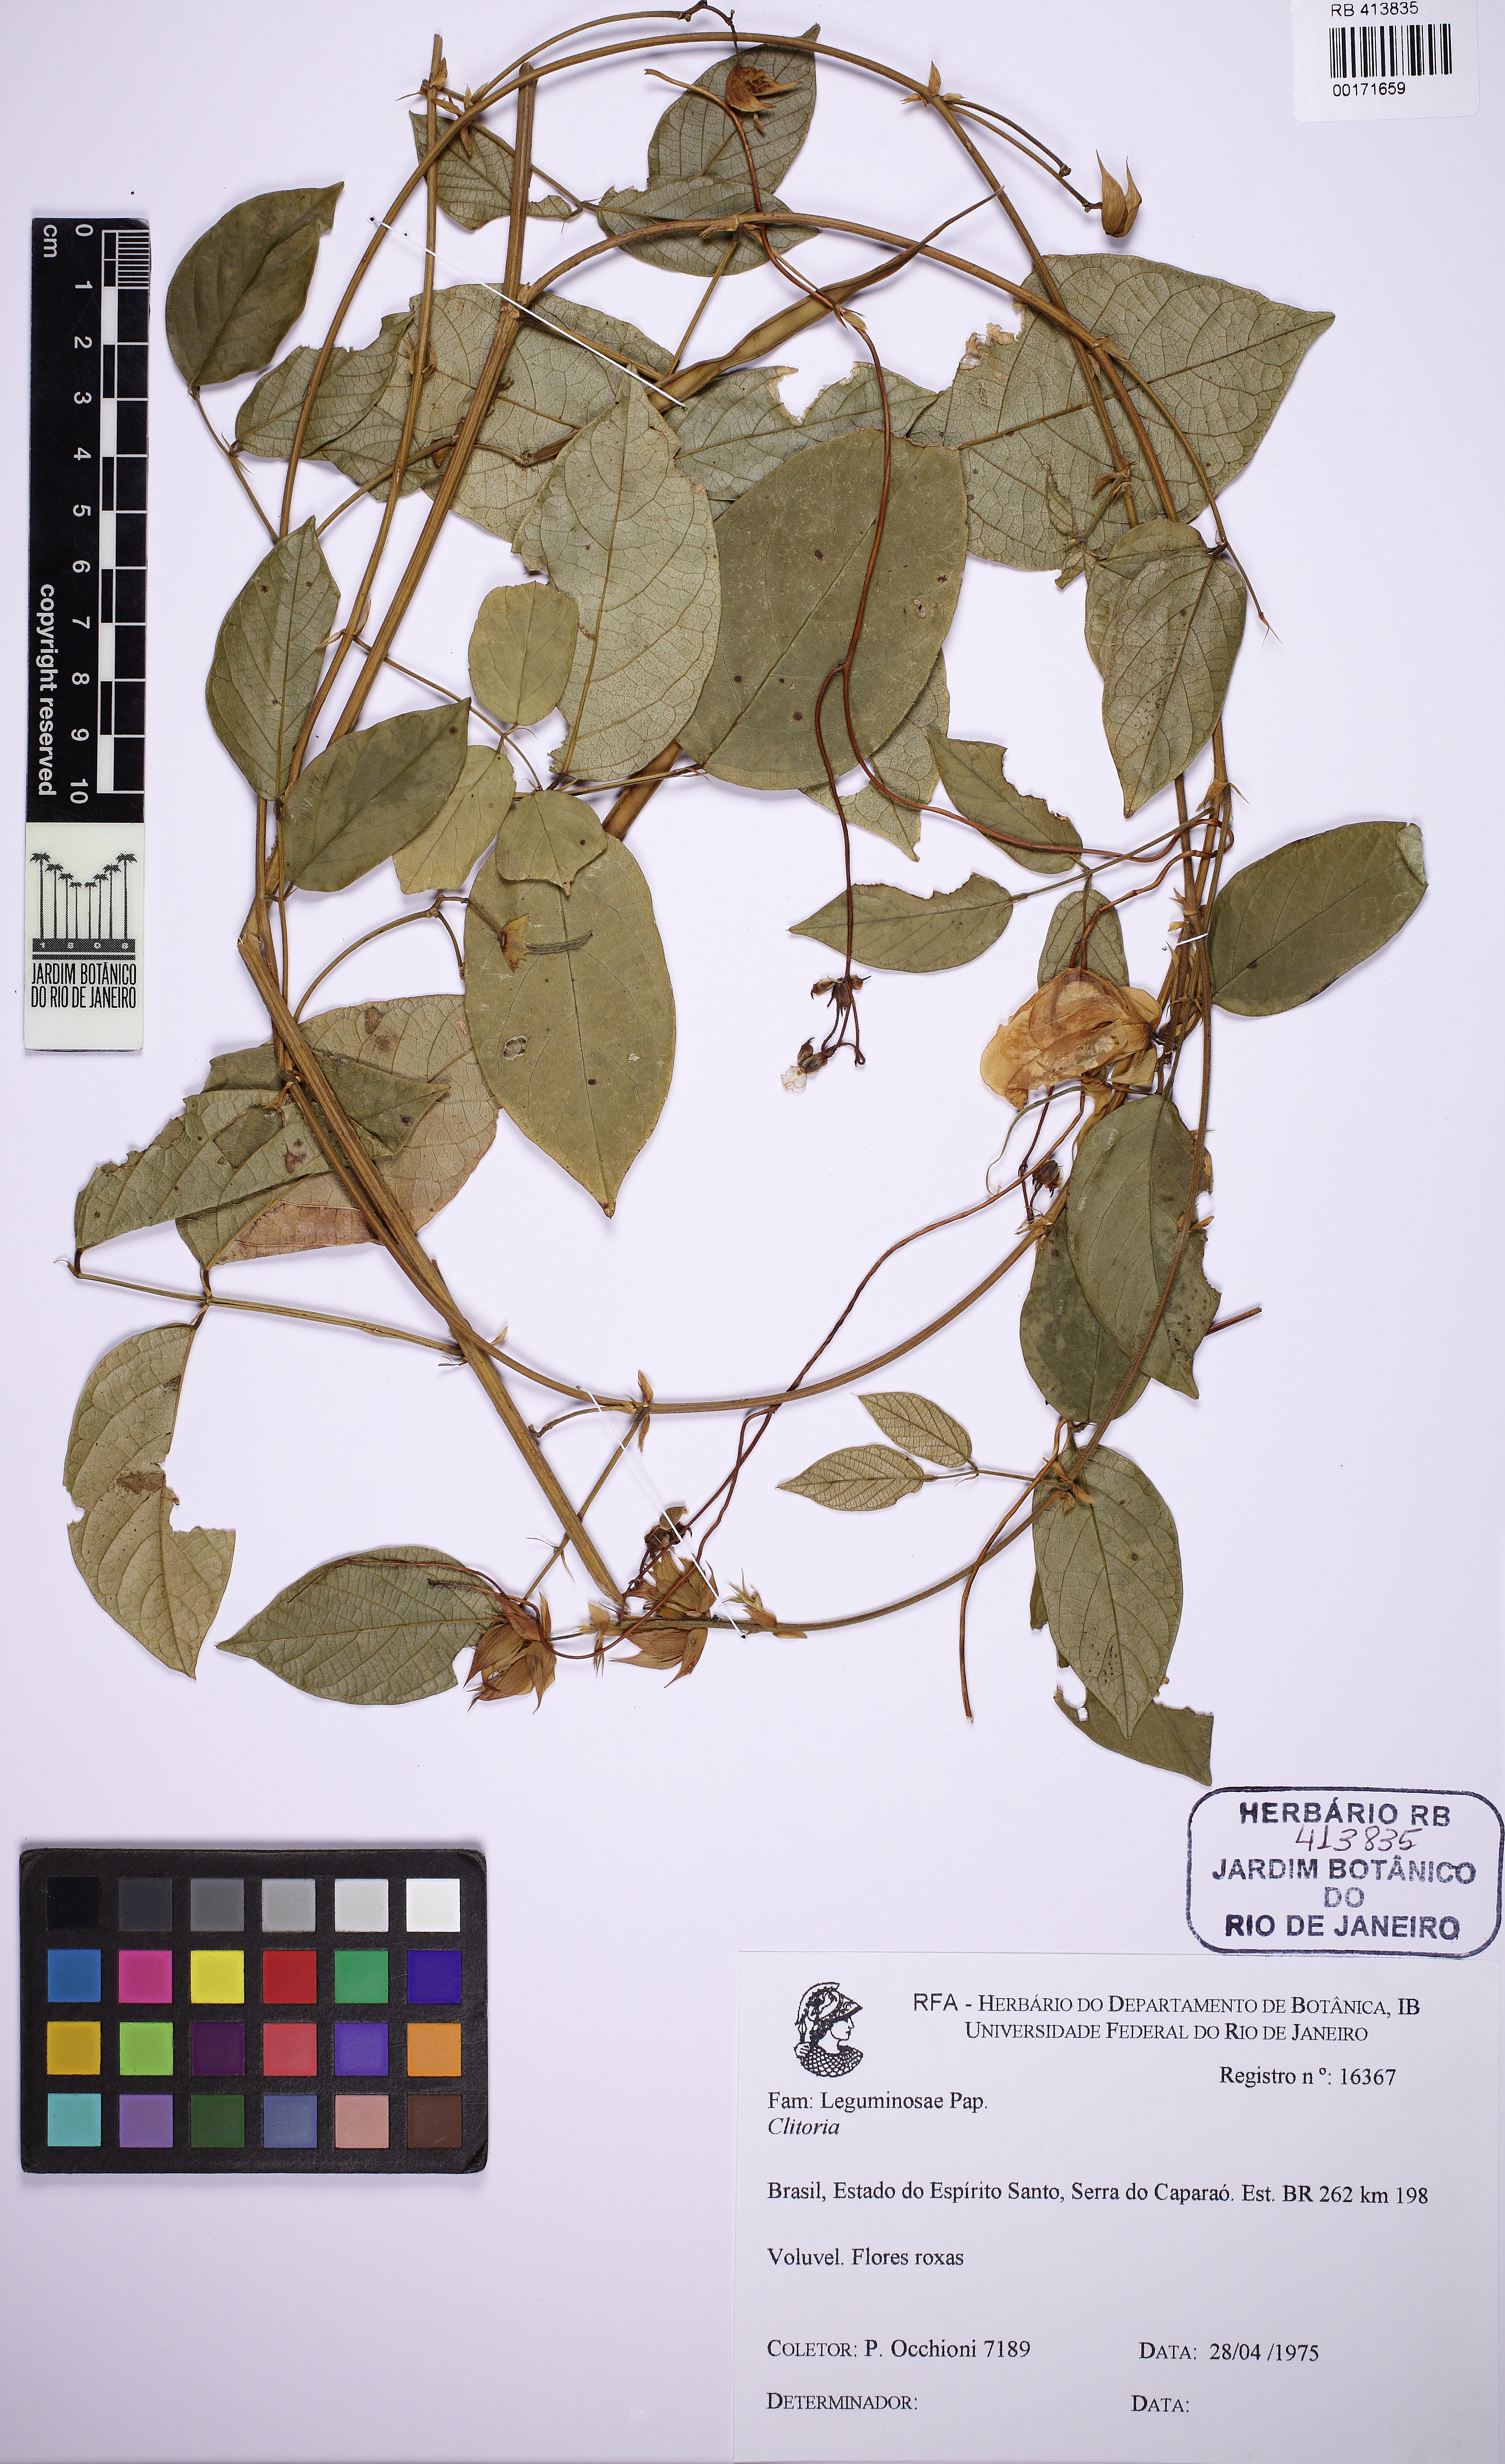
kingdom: Plantae
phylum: Tracheophyta
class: Magnoliopsida
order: Fabales
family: Fabaceae
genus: Centrosema
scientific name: Centrosema
